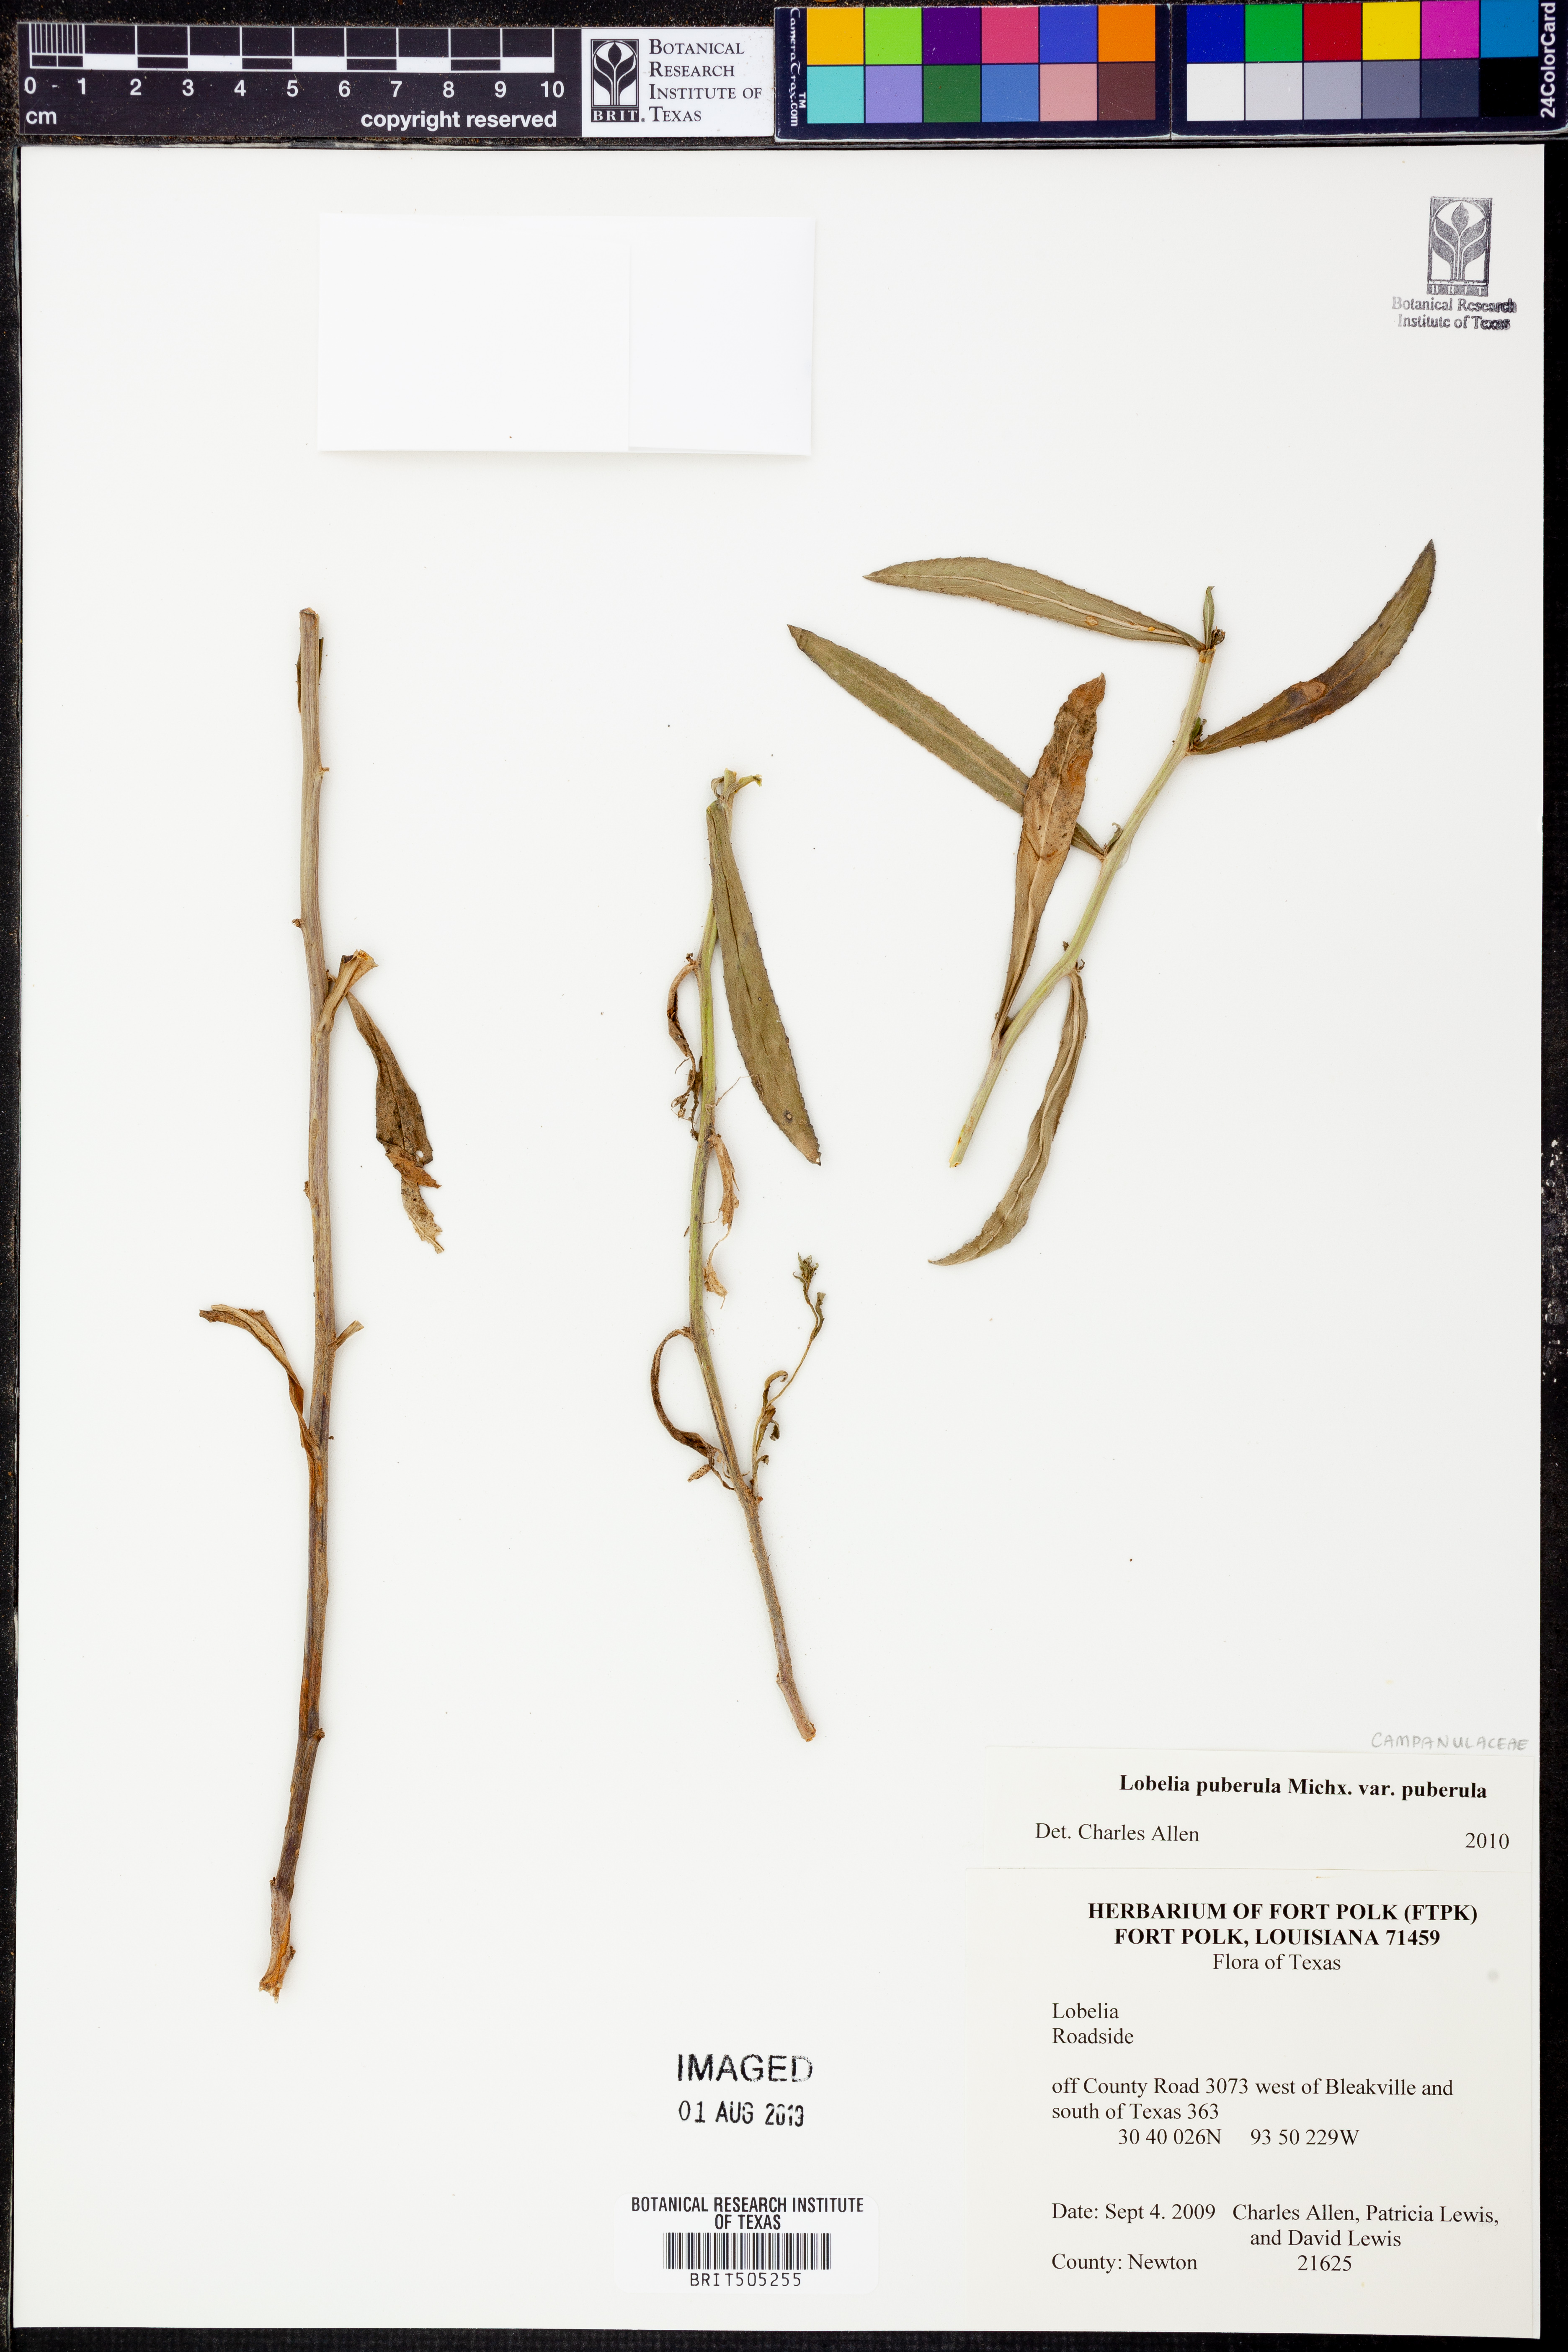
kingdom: Plantae
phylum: Tracheophyta
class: Magnoliopsida
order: Asterales
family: Campanulaceae
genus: Lobelia
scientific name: Lobelia puberula
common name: Purple dewdrop
